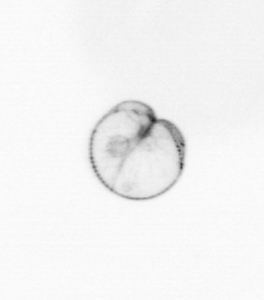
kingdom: Chromista
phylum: Myzozoa
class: Dinophyceae
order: Noctilucales
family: Noctilucaceae
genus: Noctiluca
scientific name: Noctiluca scintillans
